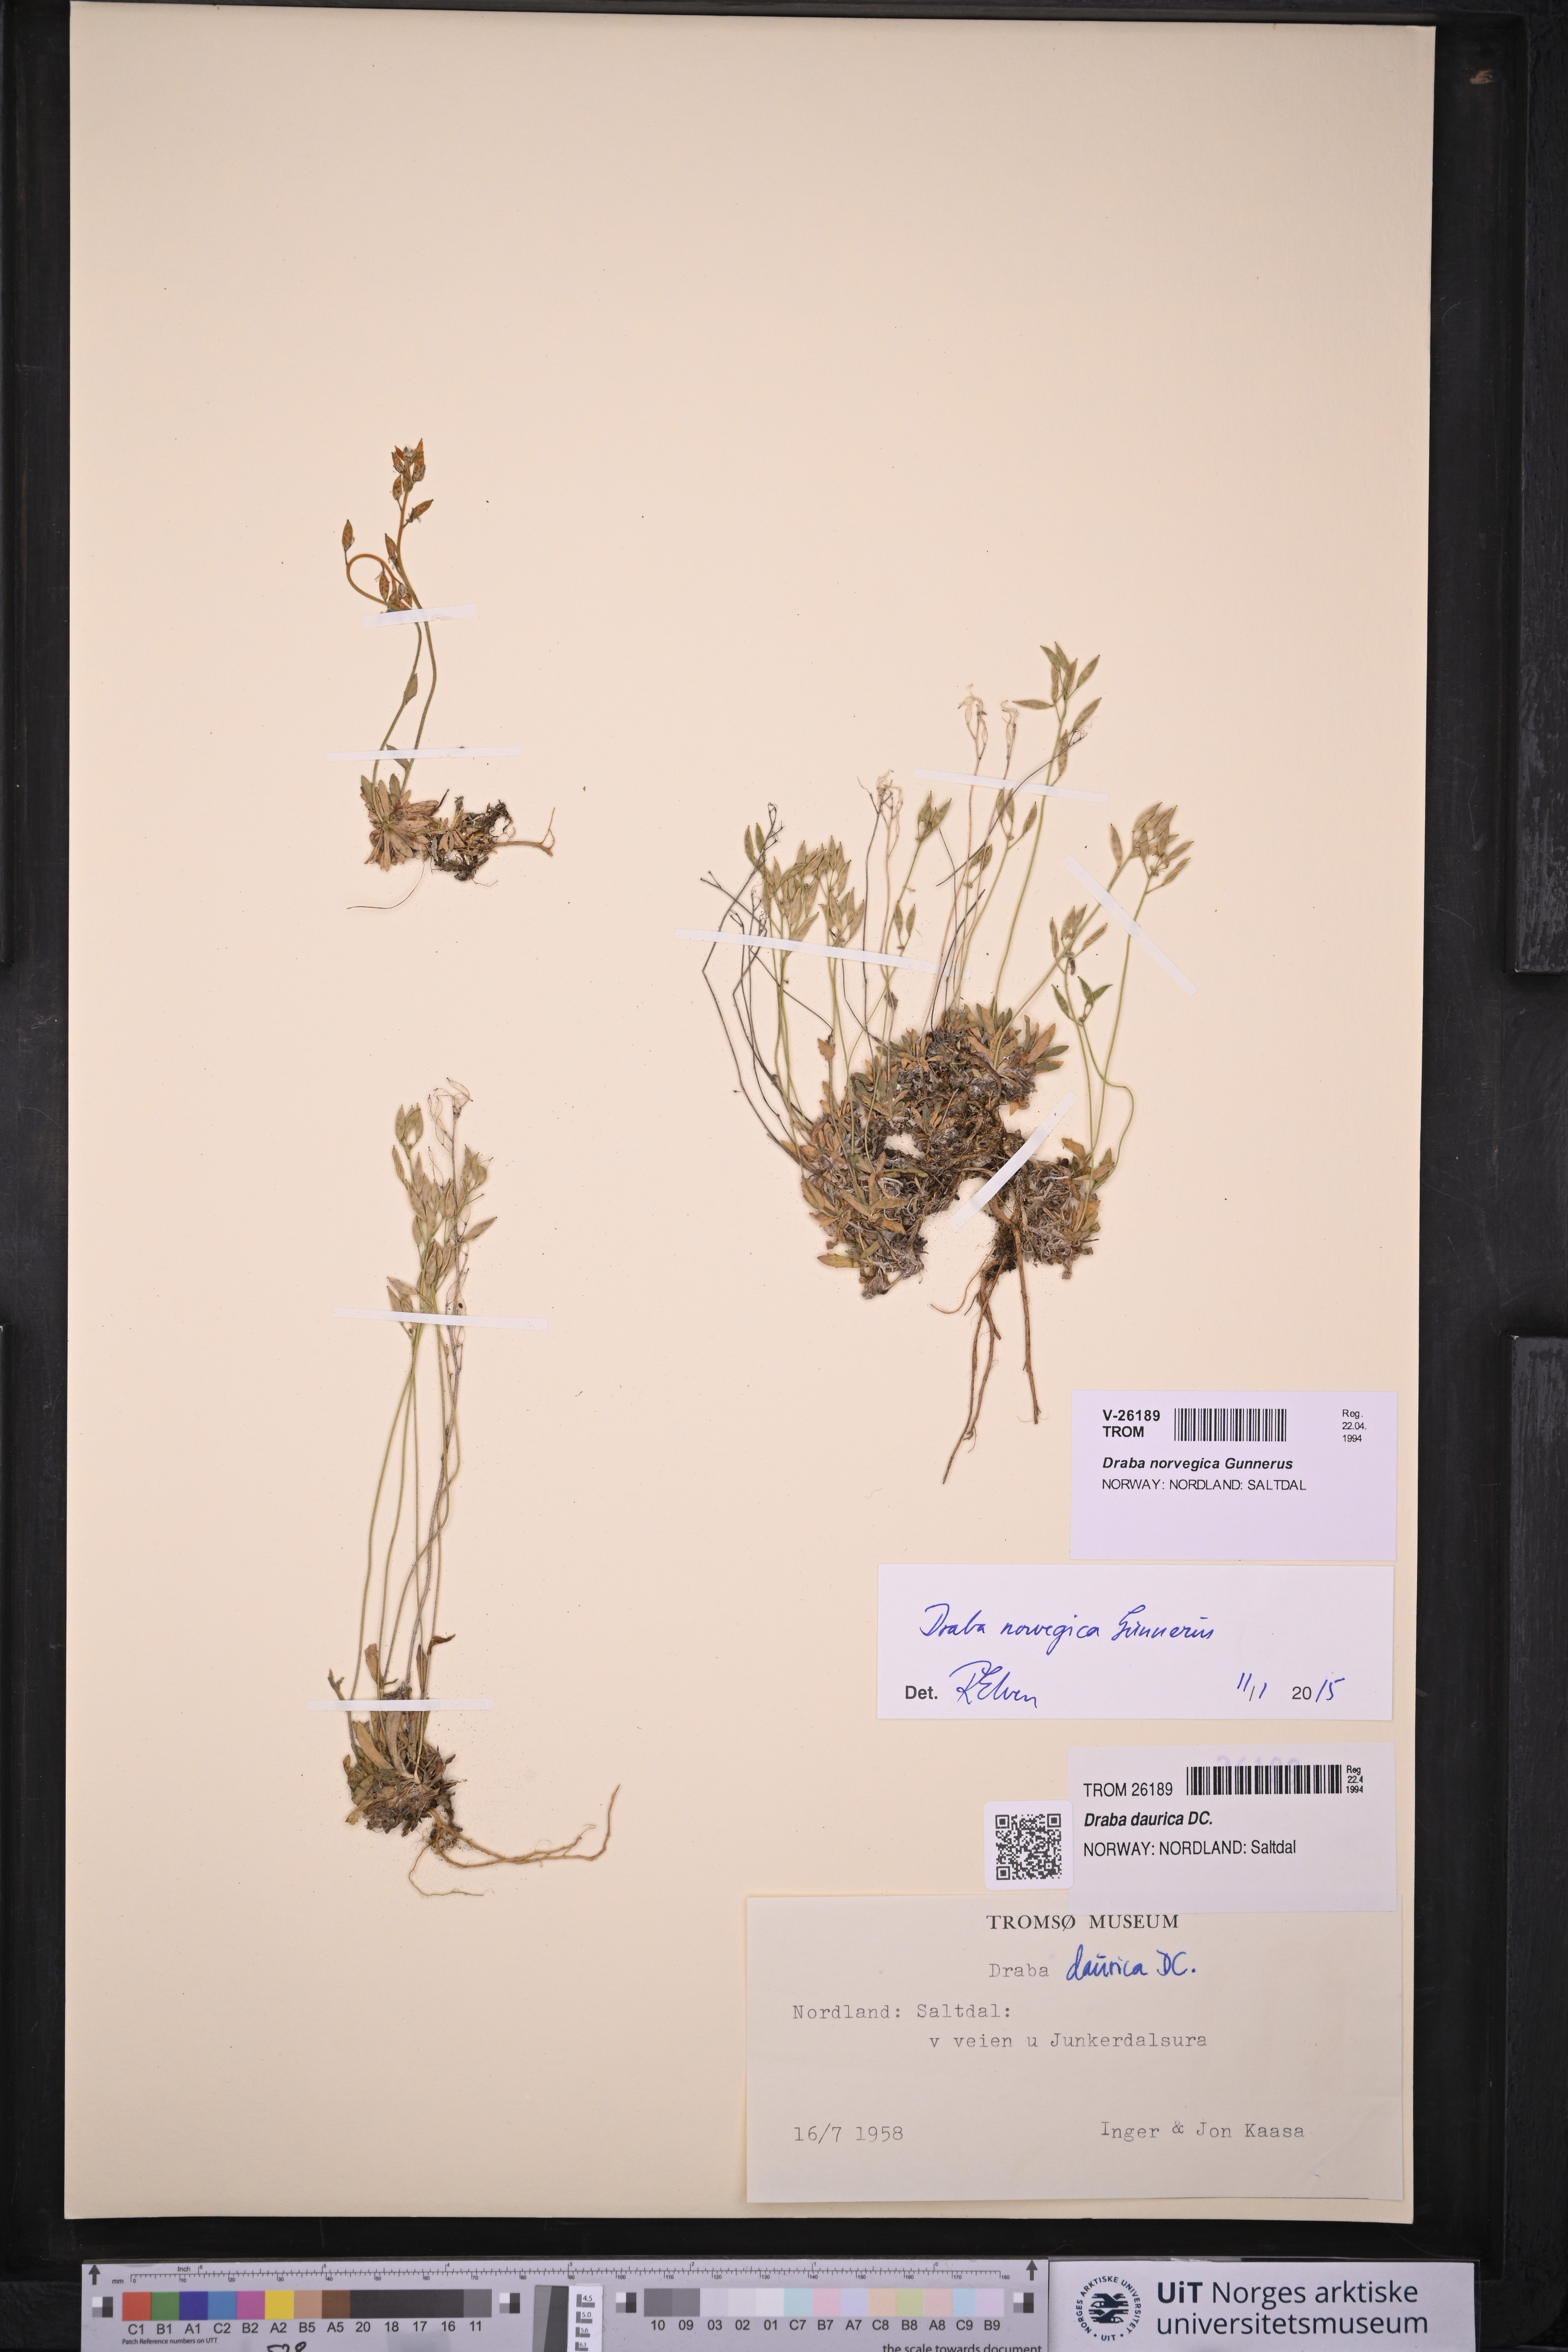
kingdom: Plantae
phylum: Tracheophyta
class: Magnoliopsida
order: Brassicales
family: Brassicaceae
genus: Draba
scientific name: Draba norvegica
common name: Rock whitlowgrass
